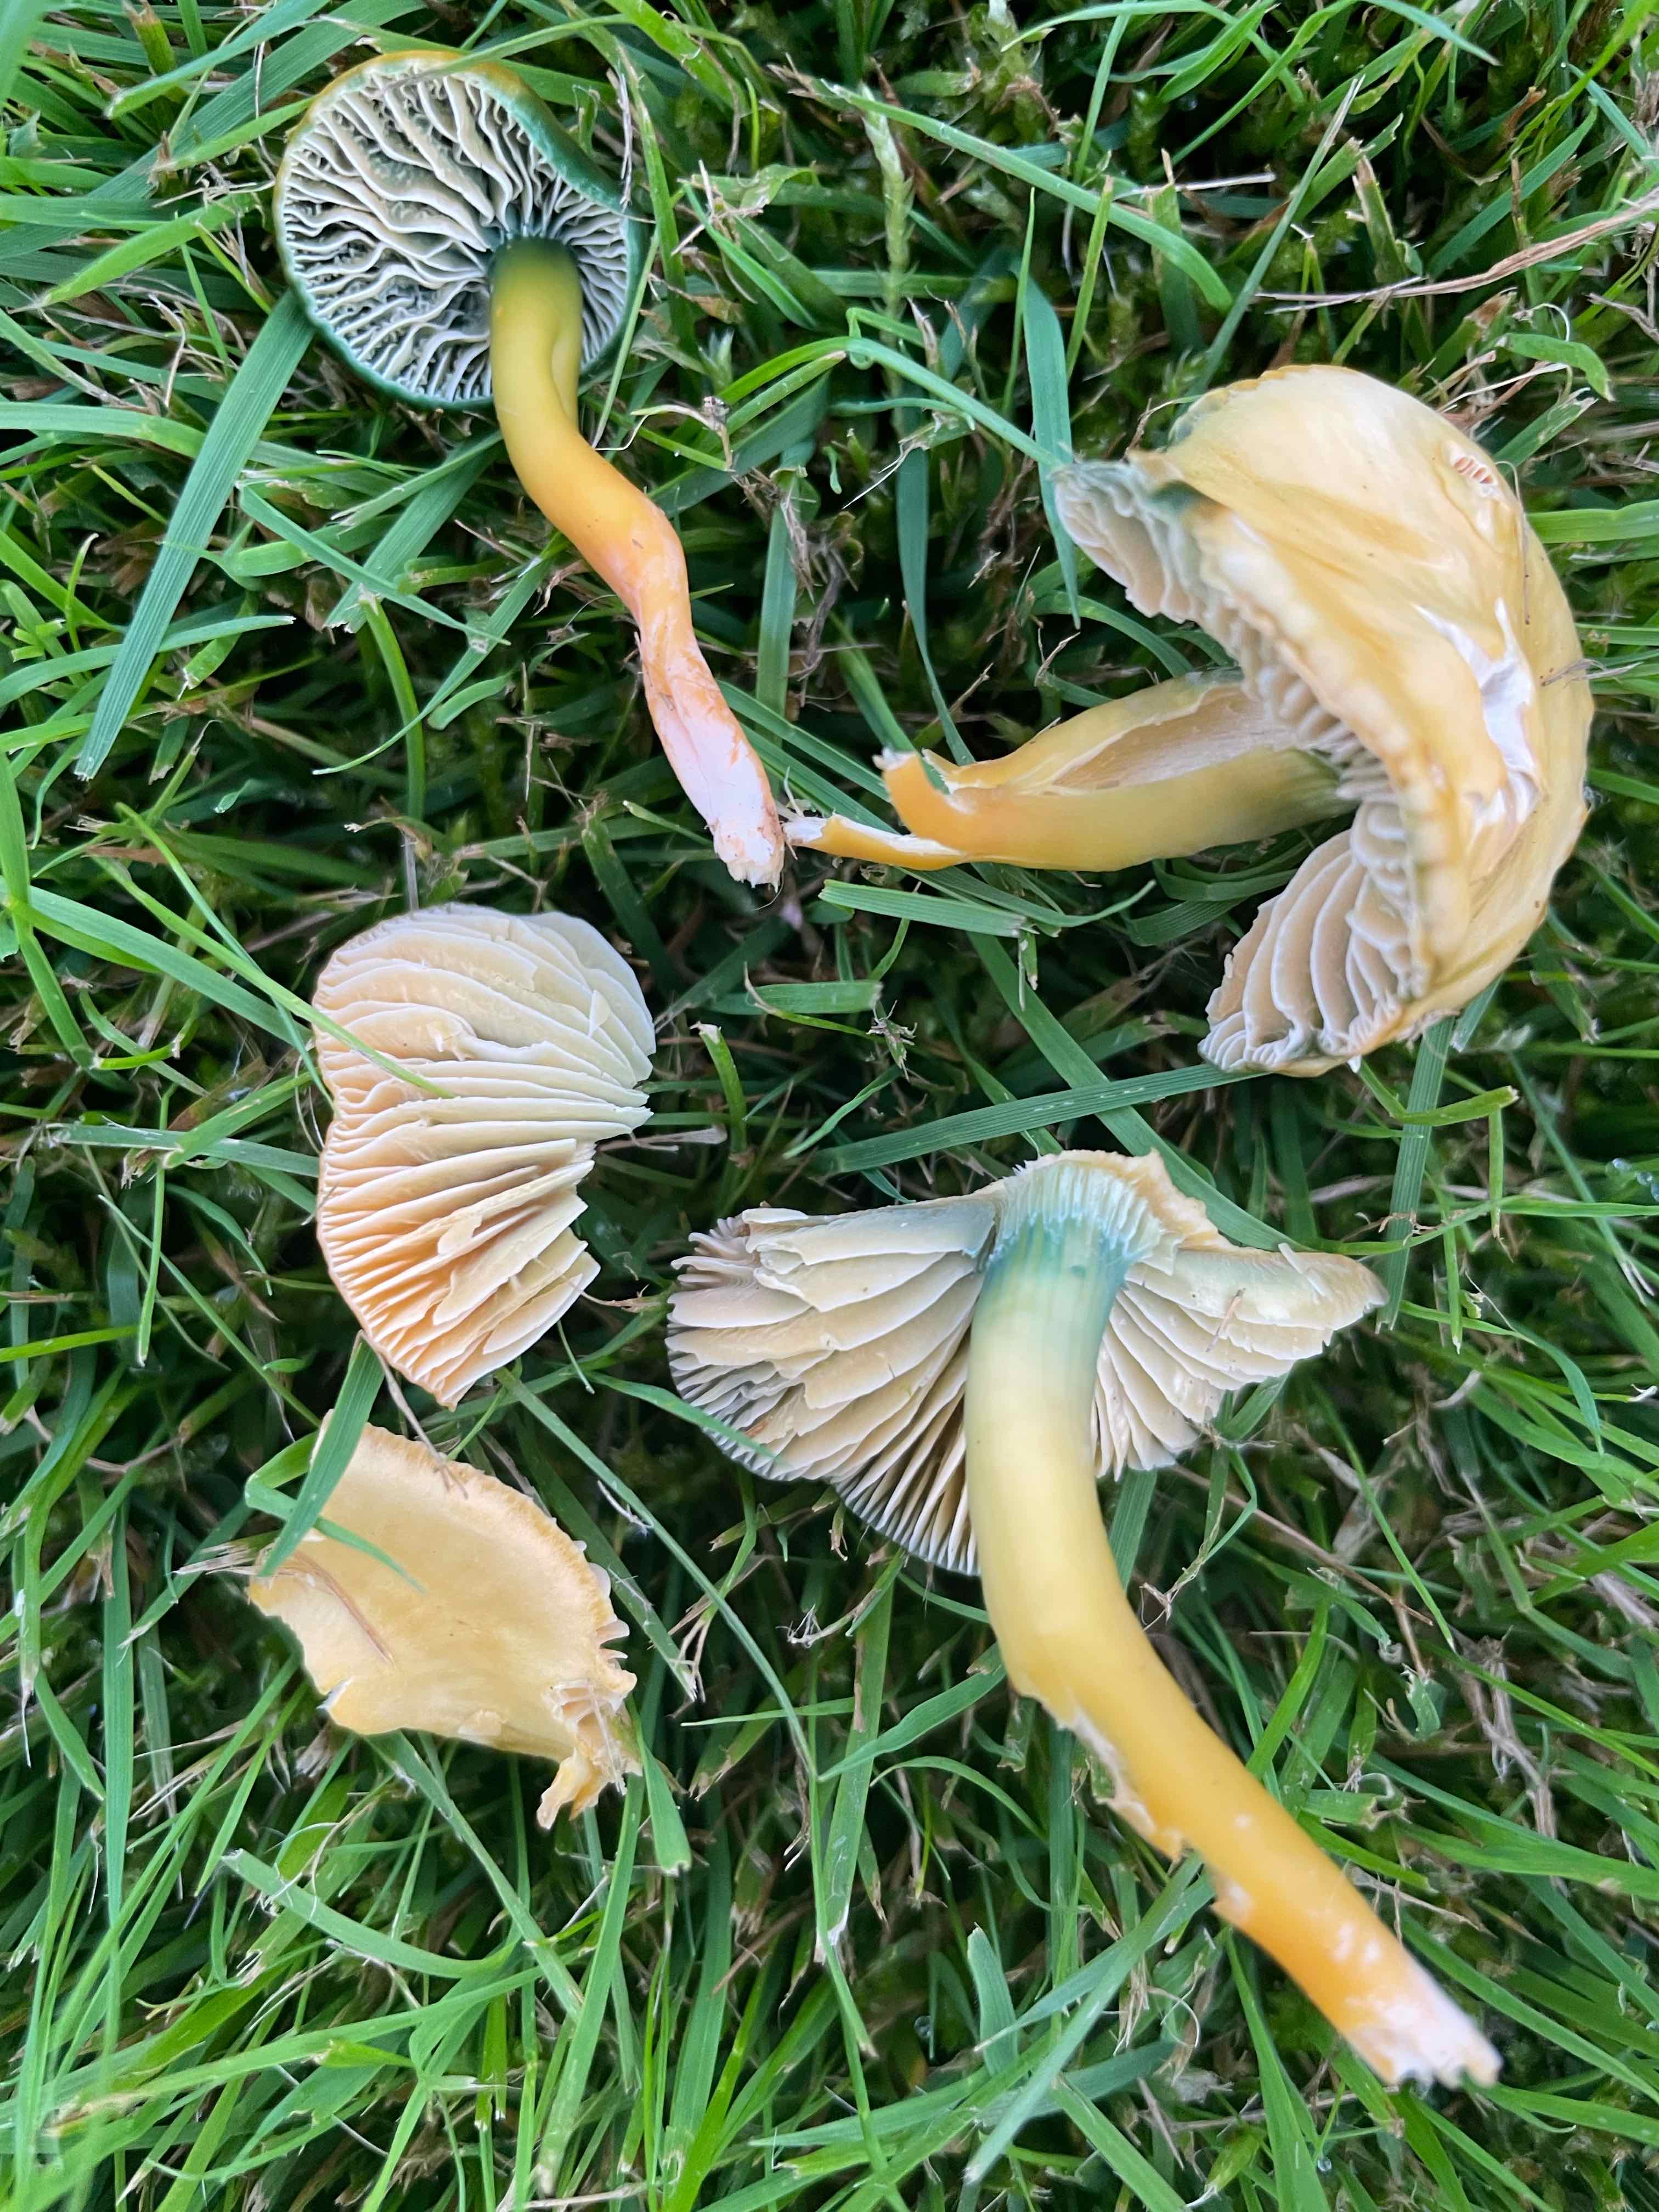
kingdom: Fungi
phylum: Basidiomycota
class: Agaricomycetes
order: Agaricales
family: Hygrophoraceae
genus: Gliophorus
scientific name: Gliophorus psittacinus
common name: papegøje-vokshat
